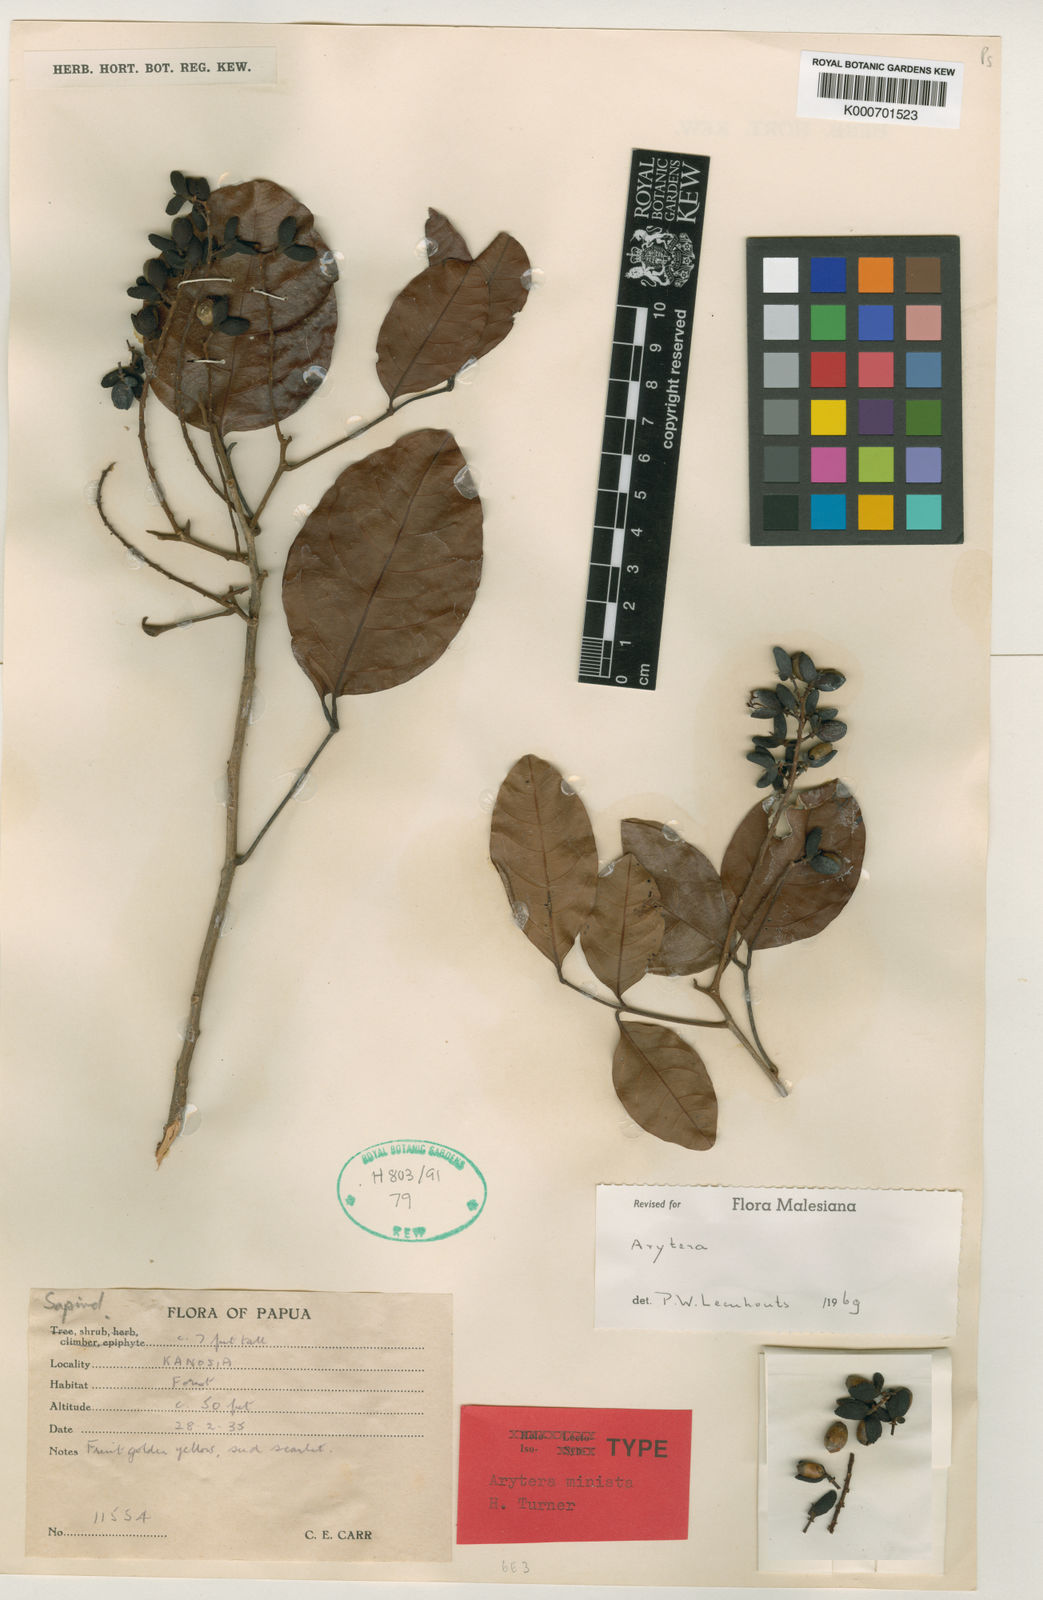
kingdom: Plantae
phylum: Tracheophyta
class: Magnoliopsida
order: Sapindales
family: Sapindaceae
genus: Arytera
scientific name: Arytera miniata
